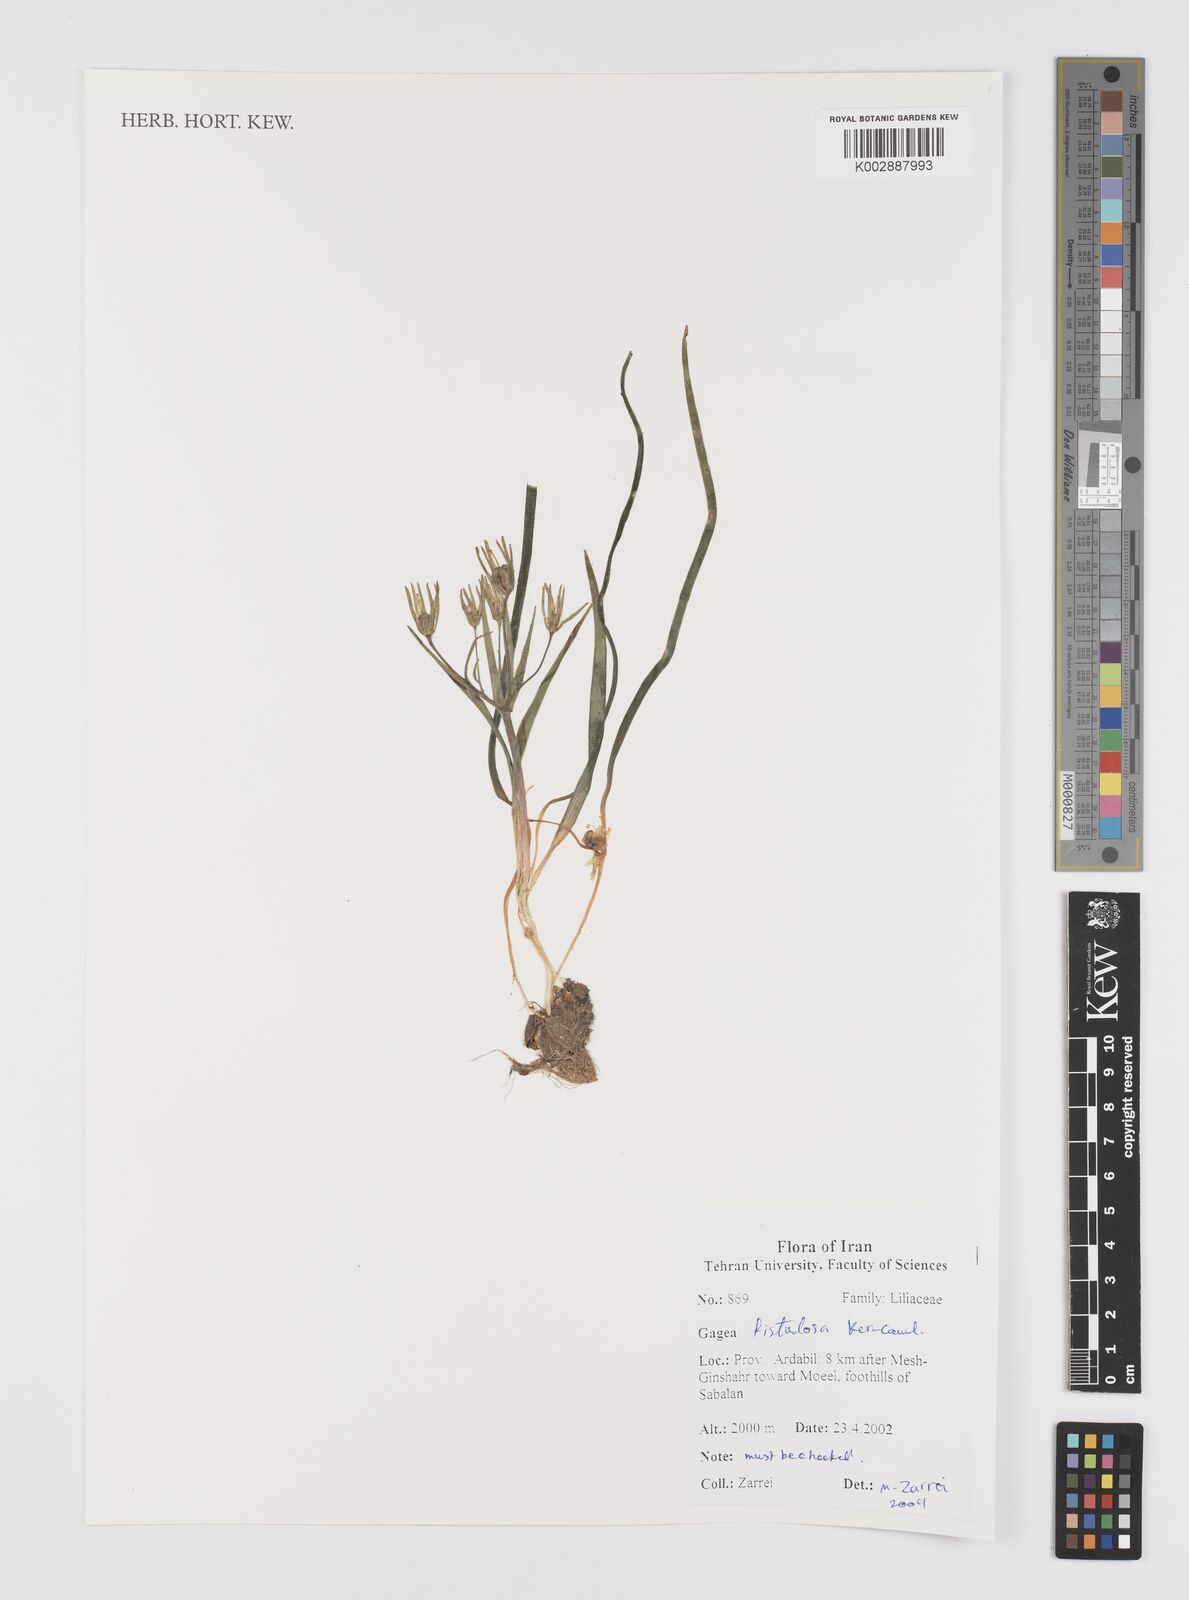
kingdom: Plantae
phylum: Tracheophyta
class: Liliopsida
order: Liliales
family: Liliaceae
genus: Gagea
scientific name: Gagea bohemica
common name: Early star-of-bethlehem
